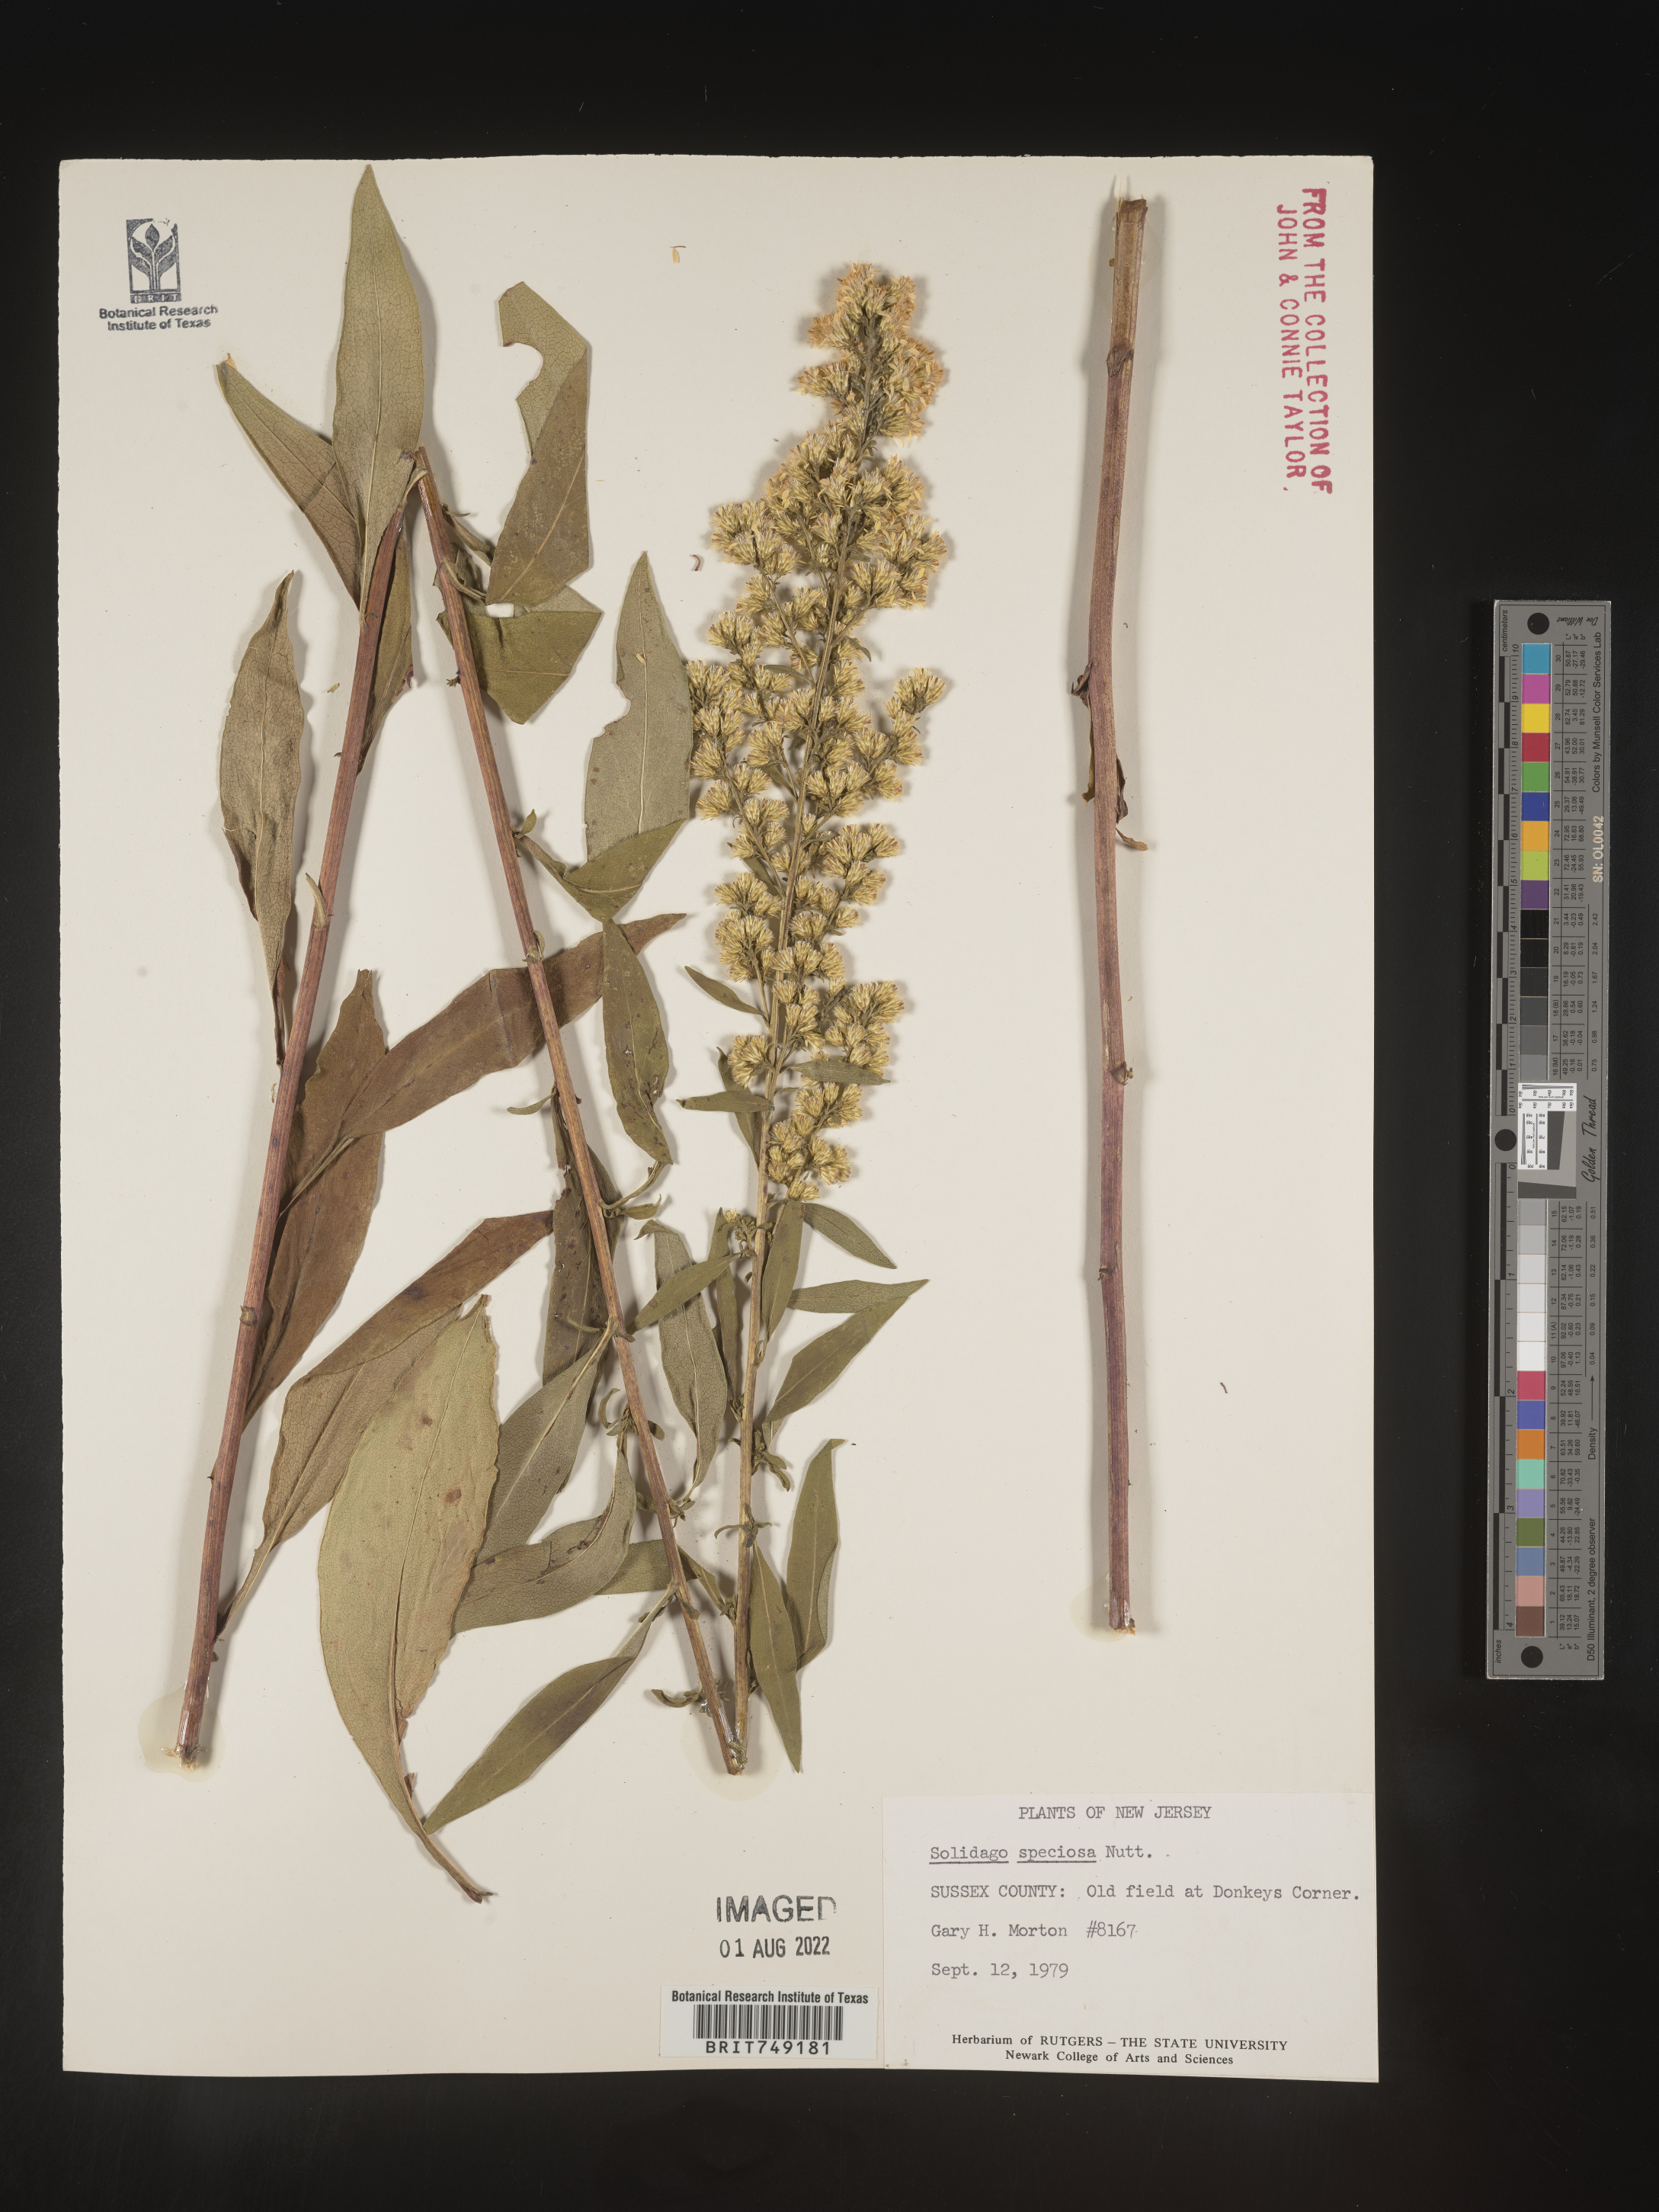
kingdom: Plantae
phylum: Tracheophyta
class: Magnoliopsida
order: Asterales
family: Asteraceae
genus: Solidago
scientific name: Solidago speciosa
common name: Showy goldenrod
